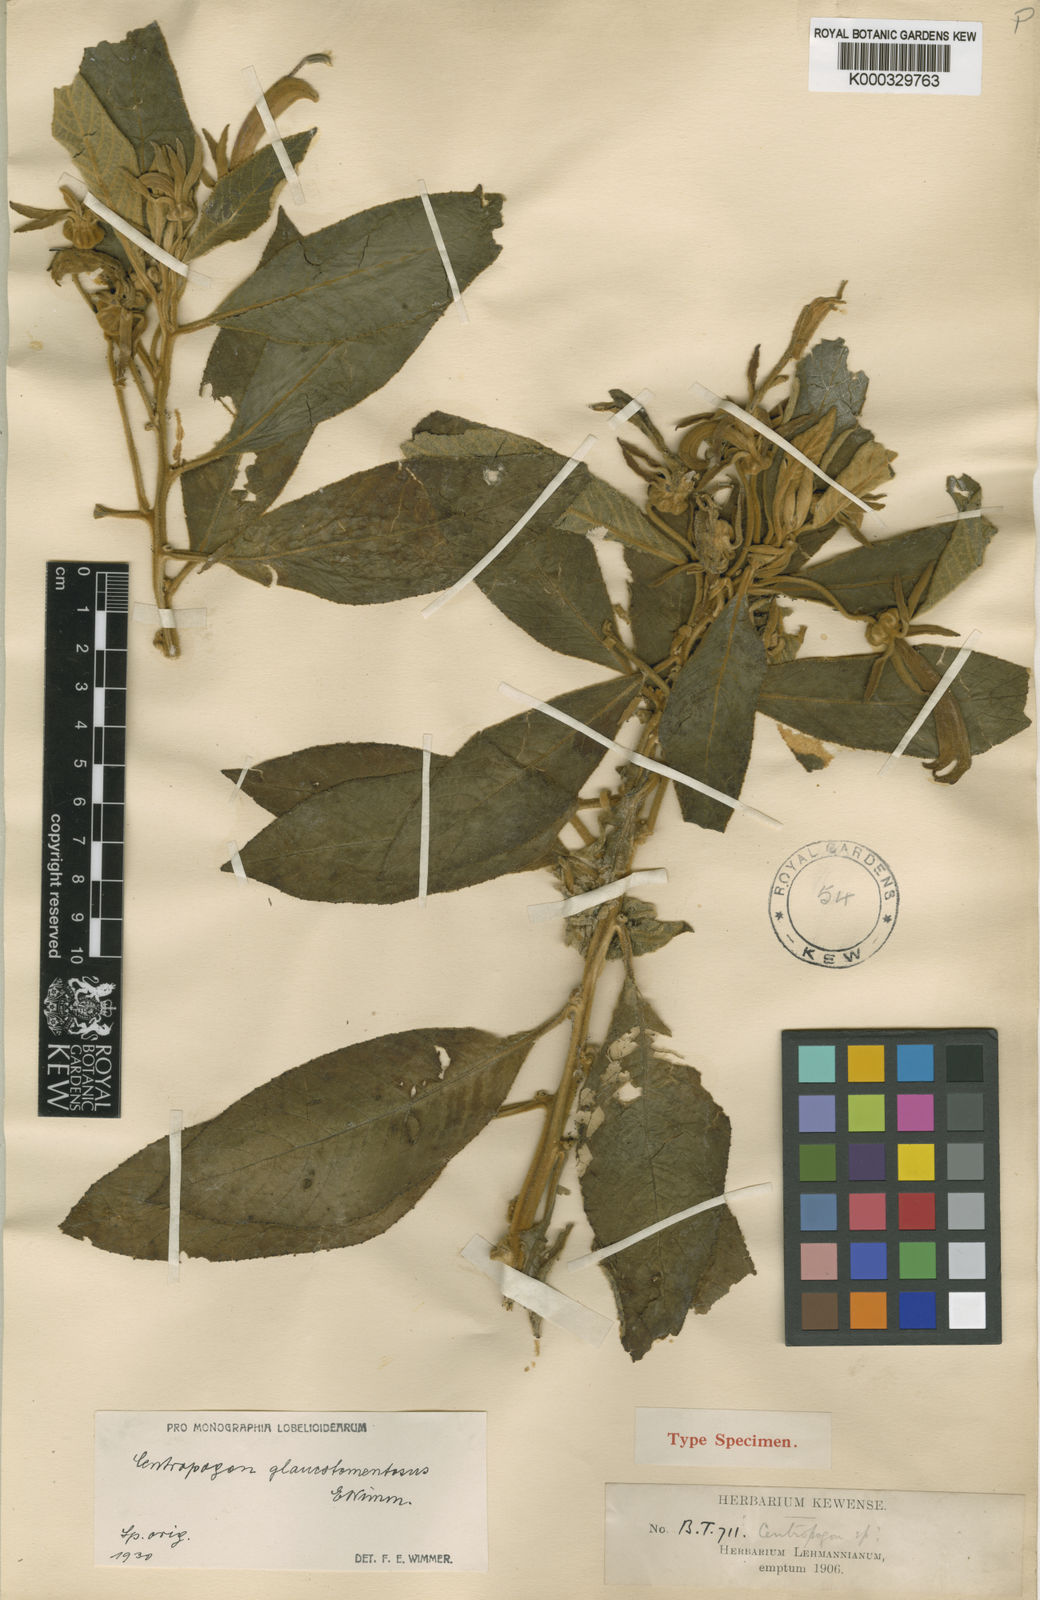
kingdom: Plantae
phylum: Tracheophyta
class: Magnoliopsida
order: Asterales
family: Campanulaceae
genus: Centropogon
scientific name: Centropogon glaucotomentosus
